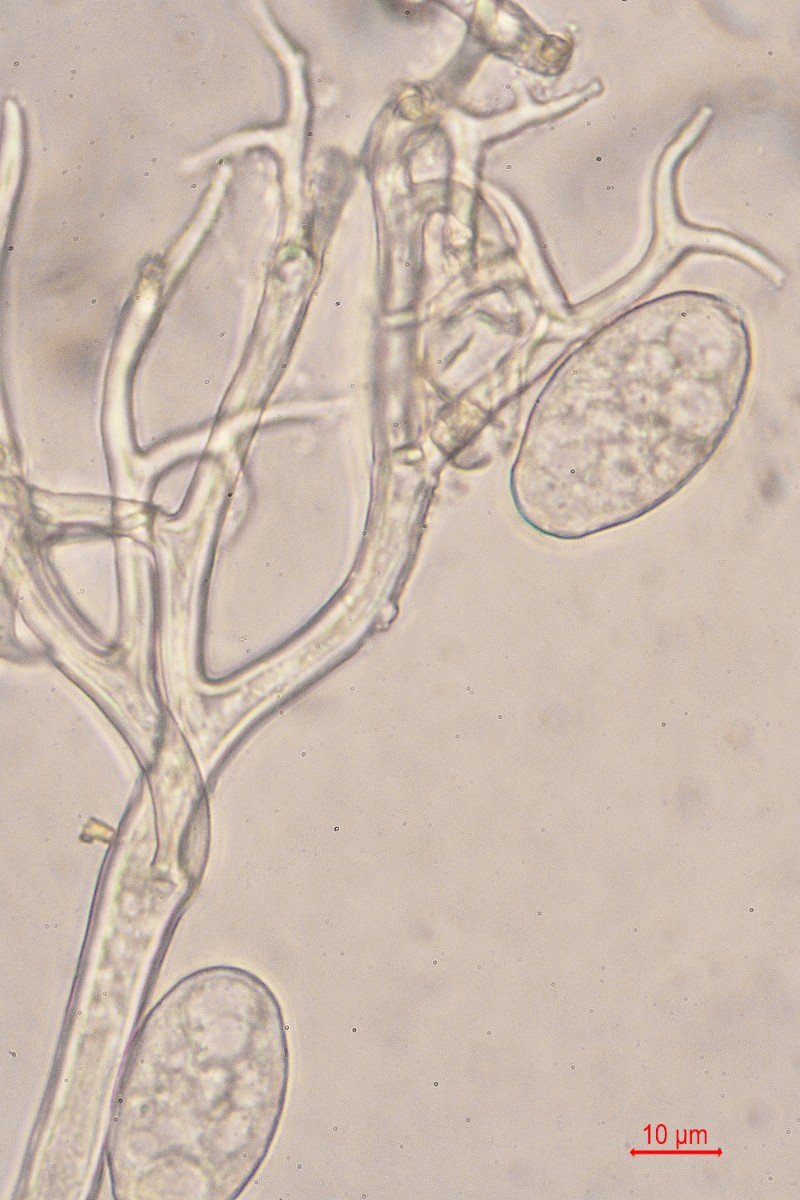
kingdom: Chromista
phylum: Oomycota
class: Peronosporea
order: Peronosporales
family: Peronosporaceae
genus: Peronospora
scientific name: Peronospora lamii
